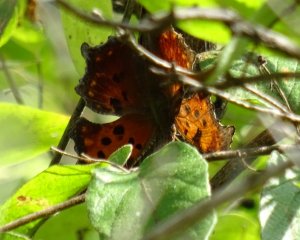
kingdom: Animalia
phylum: Arthropoda
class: Insecta
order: Lepidoptera
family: Nymphalidae
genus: Polygonia
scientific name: Polygonia
